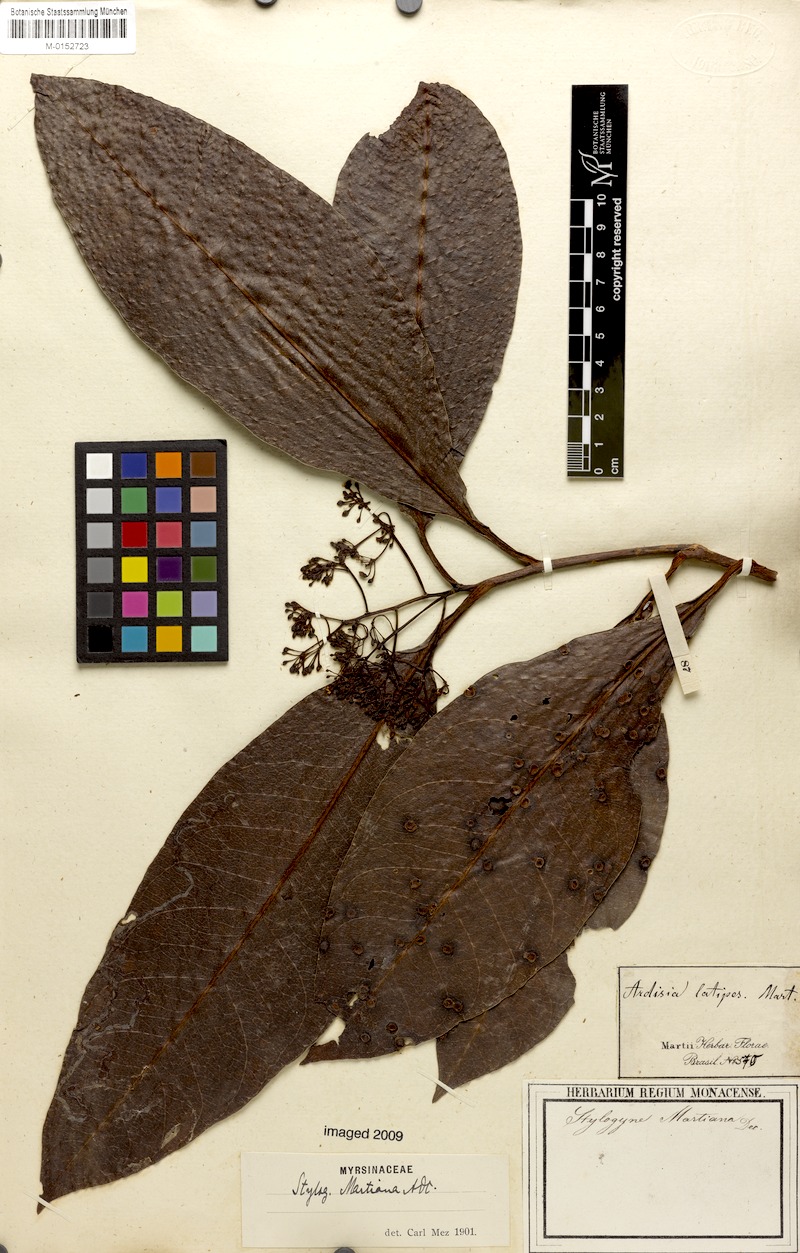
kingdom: Plantae
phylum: Tracheophyta
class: Magnoliopsida
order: Ericales
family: Primulaceae
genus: Stylogyne
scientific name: Stylogyne martiana
